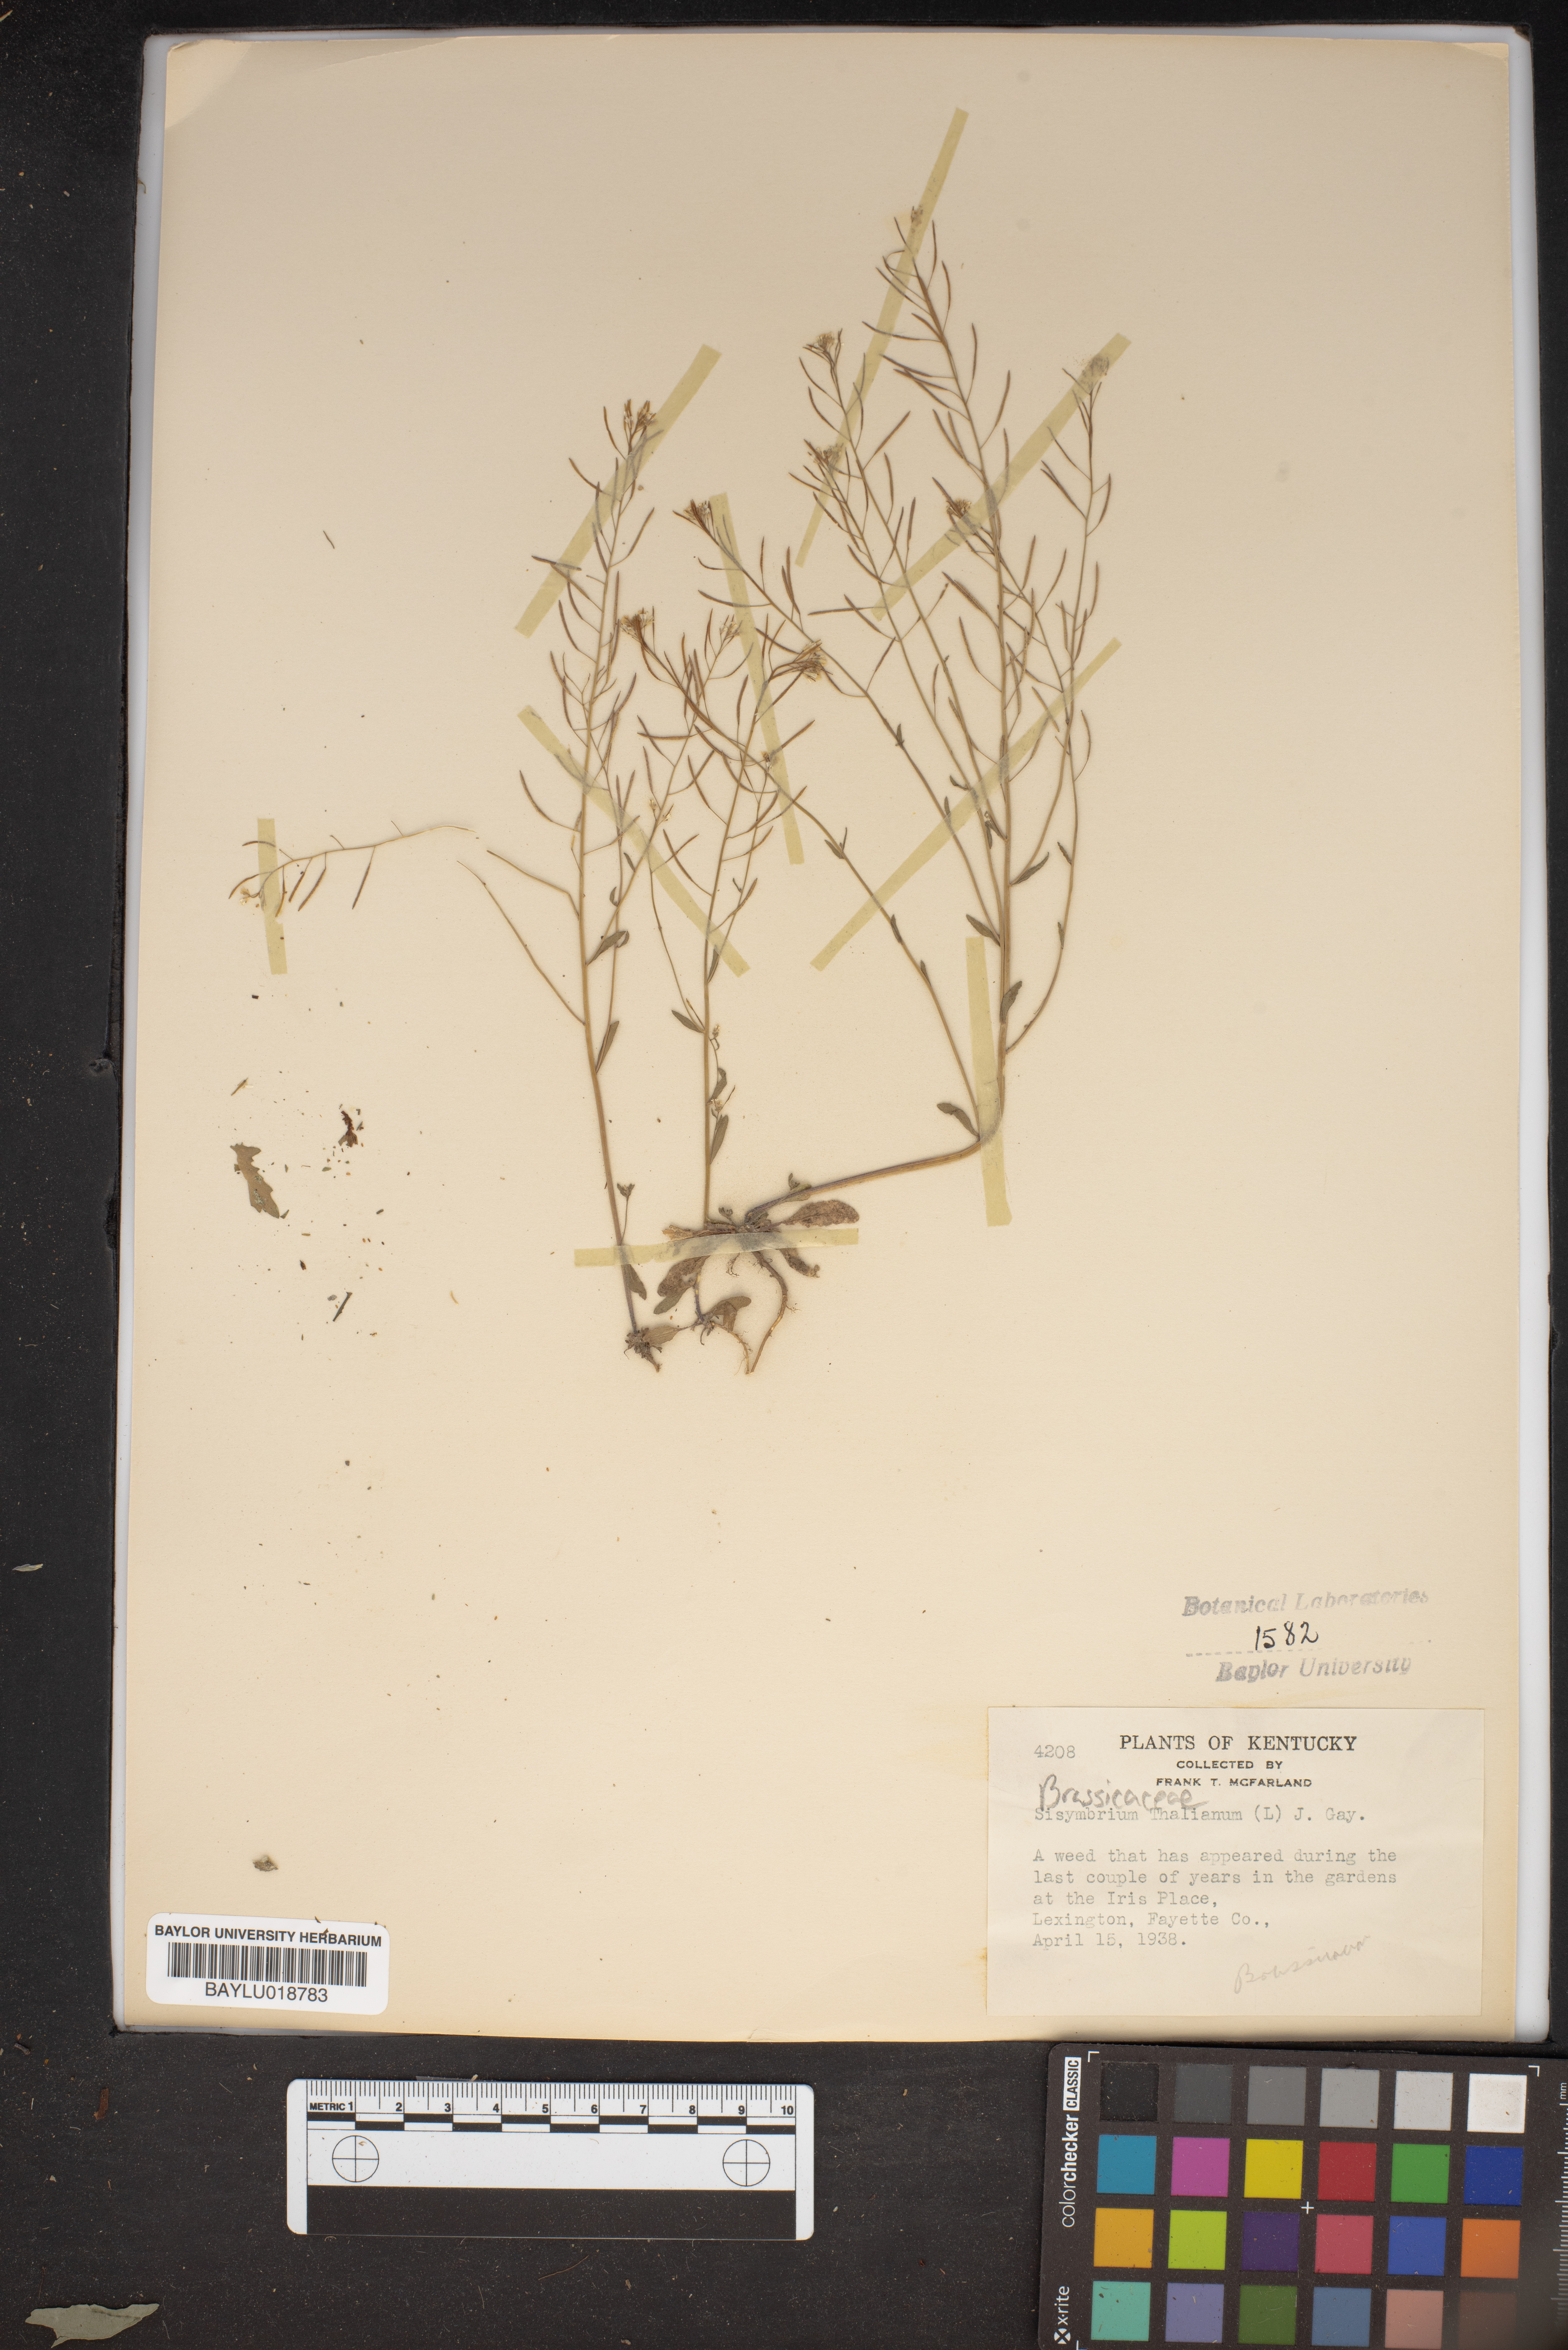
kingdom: Plantae
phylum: Tracheophyta
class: Magnoliopsida
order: Brassicales
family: Brassicaceae
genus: Arabidopsis
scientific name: Arabidopsis thaliana
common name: Thale cress
